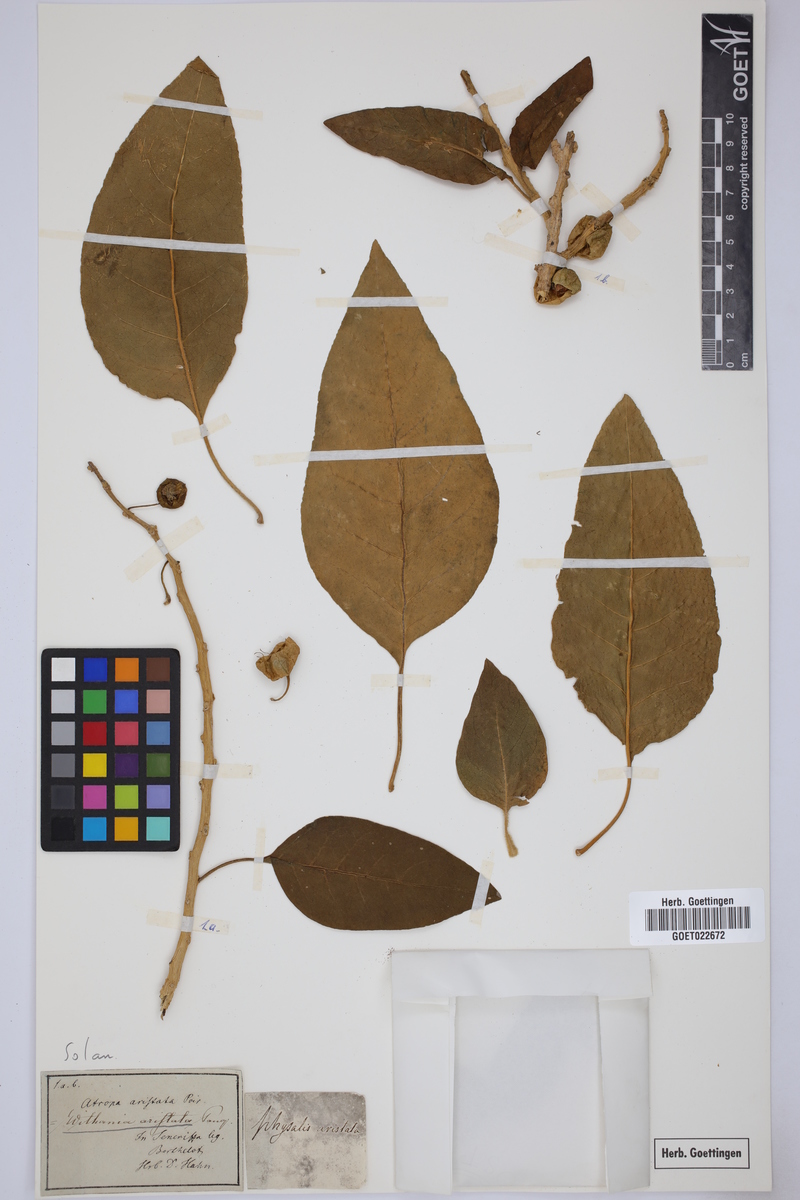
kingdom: Plantae
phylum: Tracheophyta
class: Magnoliopsida
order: Solanales
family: Solanaceae
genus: Withania
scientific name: Withania aristata
